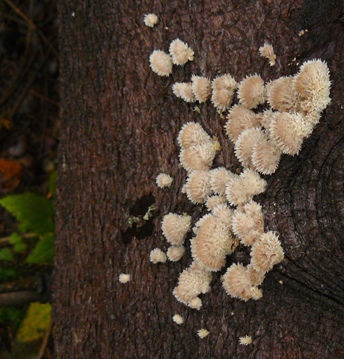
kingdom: Fungi
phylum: Basidiomycota
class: Agaricomycetes
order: Agaricales
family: Schizophyllaceae
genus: Schizophyllum
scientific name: Schizophyllum commune
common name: kløvblad
